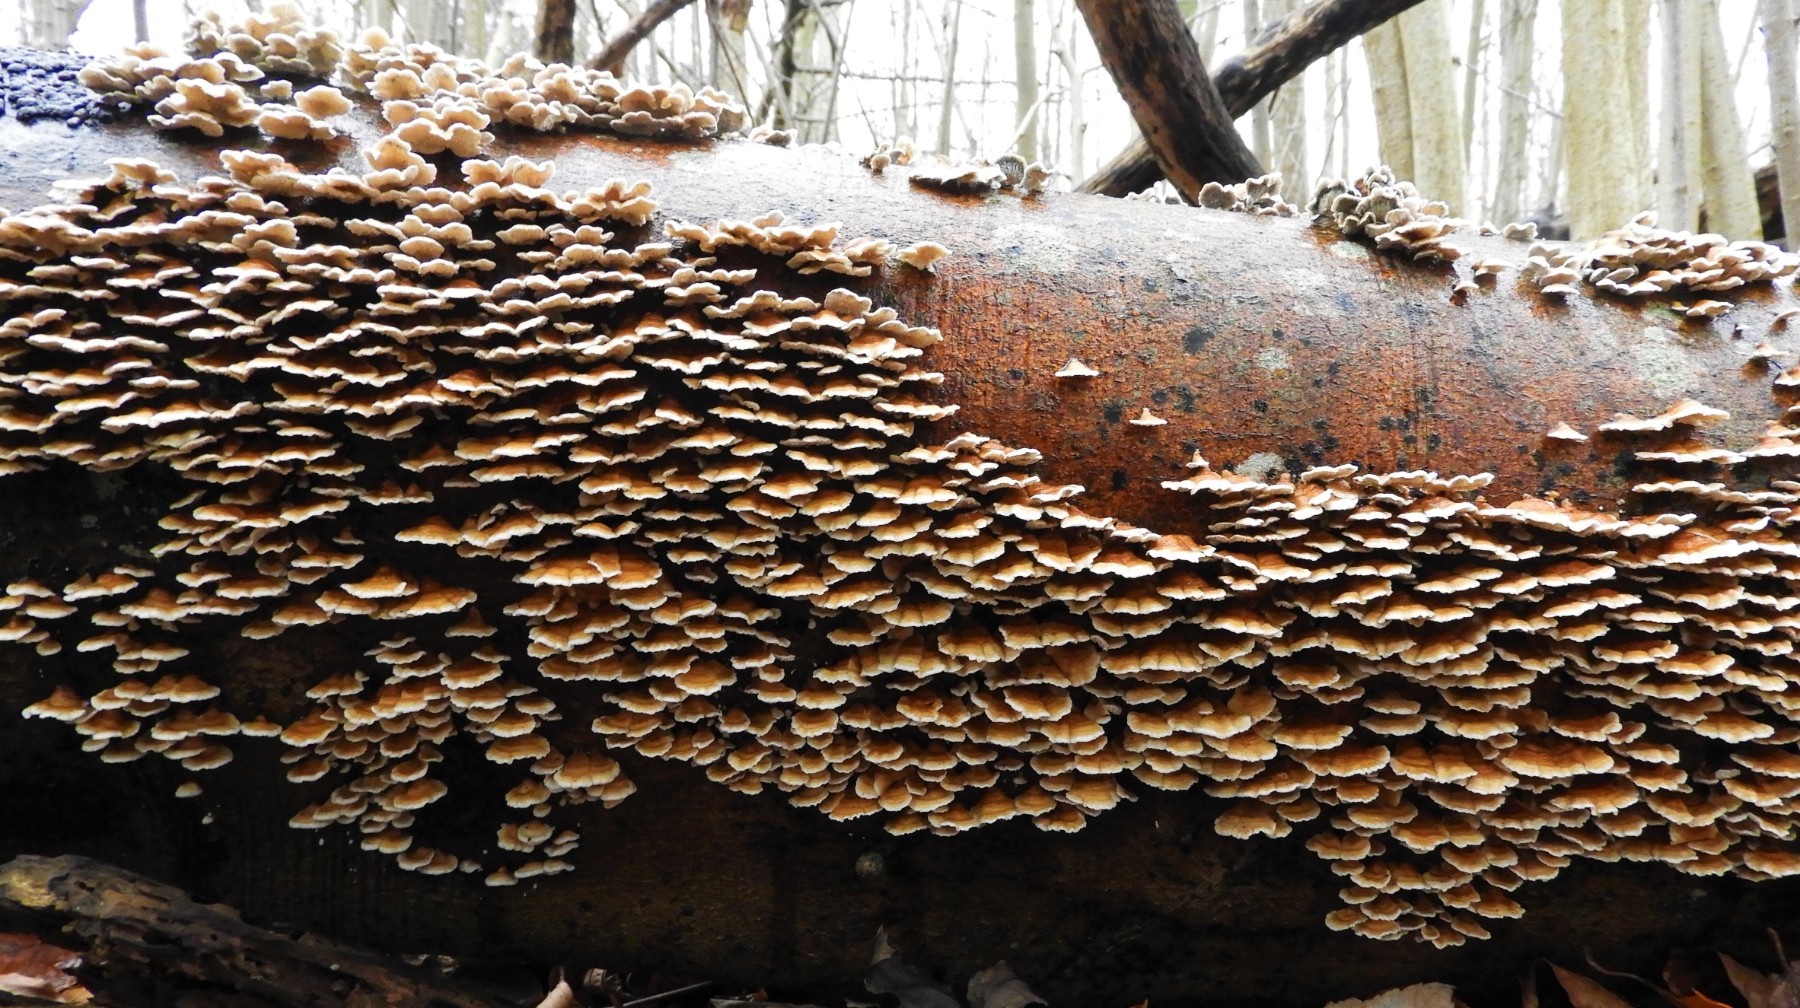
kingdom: Fungi
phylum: Basidiomycota
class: Agaricomycetes
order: Amylocorticiales
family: Amylocorticiaceae
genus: Plicaturopsis
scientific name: Plicaturopsis crispa
